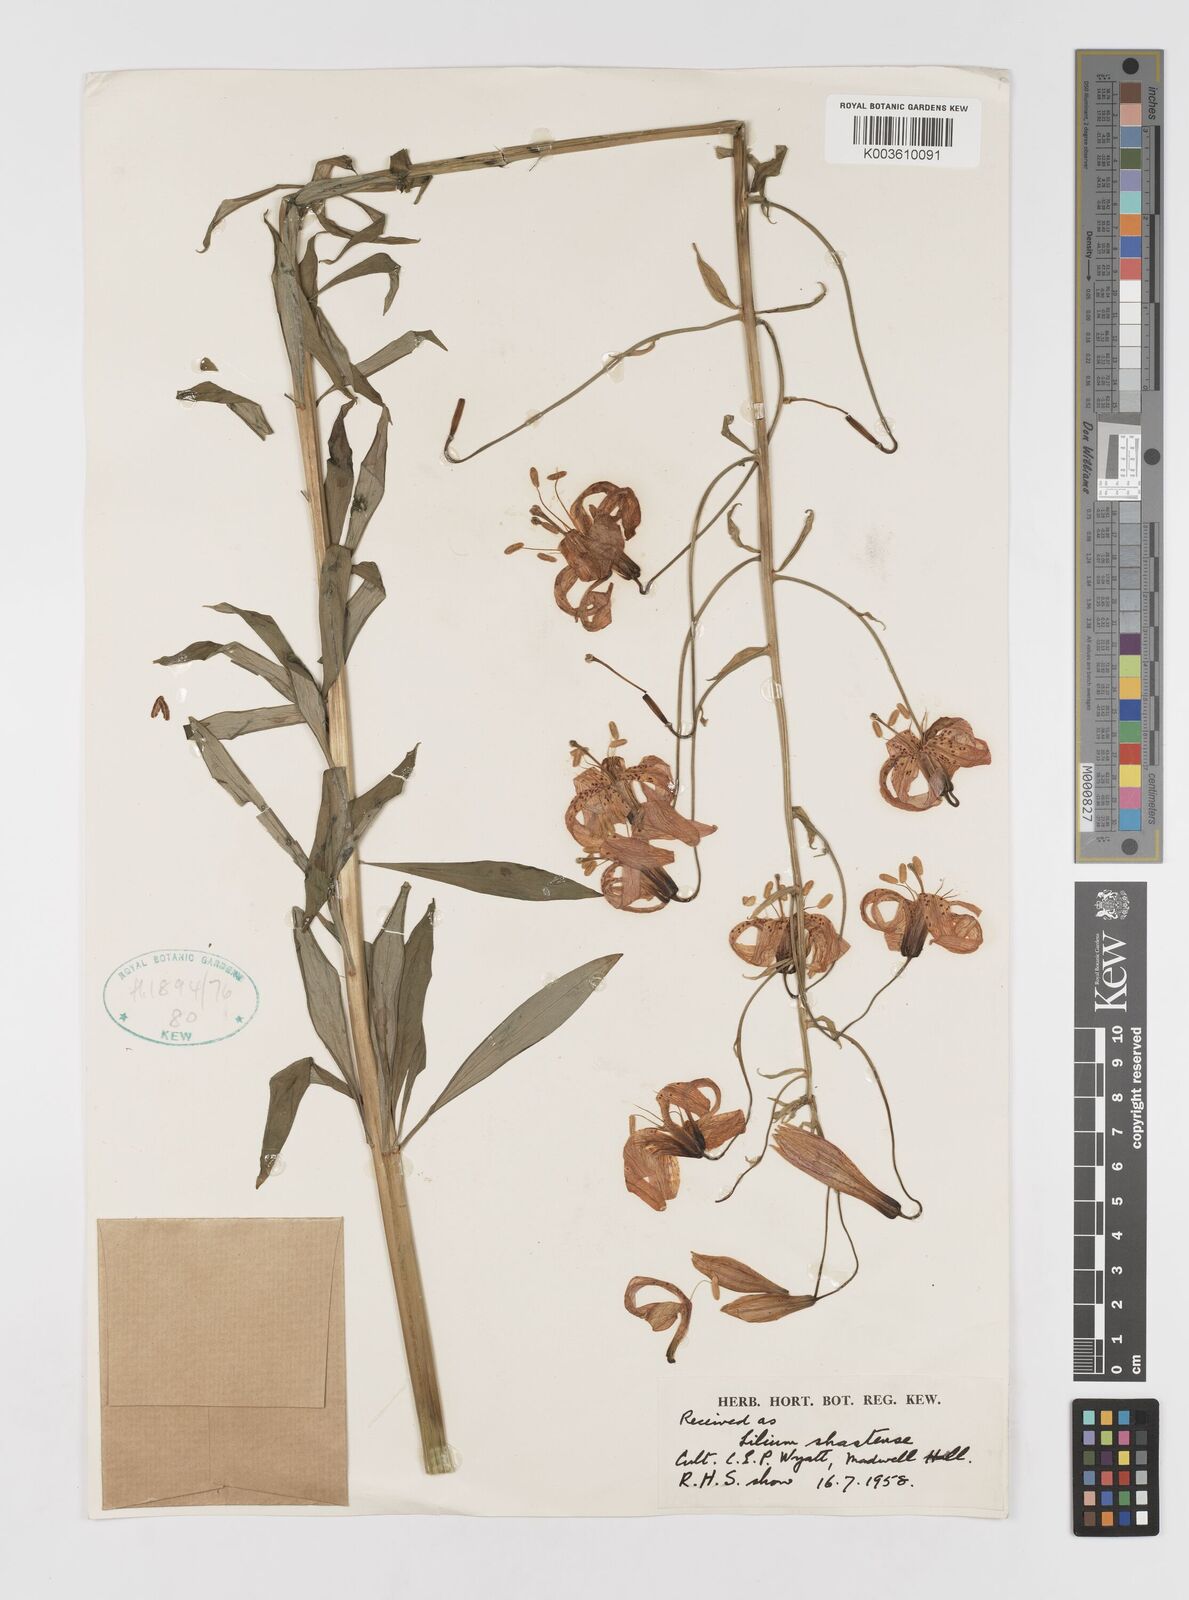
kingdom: Plantae
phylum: Tracheophyta
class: Liliopsida
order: Liliales
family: Liliaceae
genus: Lilium
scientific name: Lilium kelleyanum
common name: Kelley's lily
